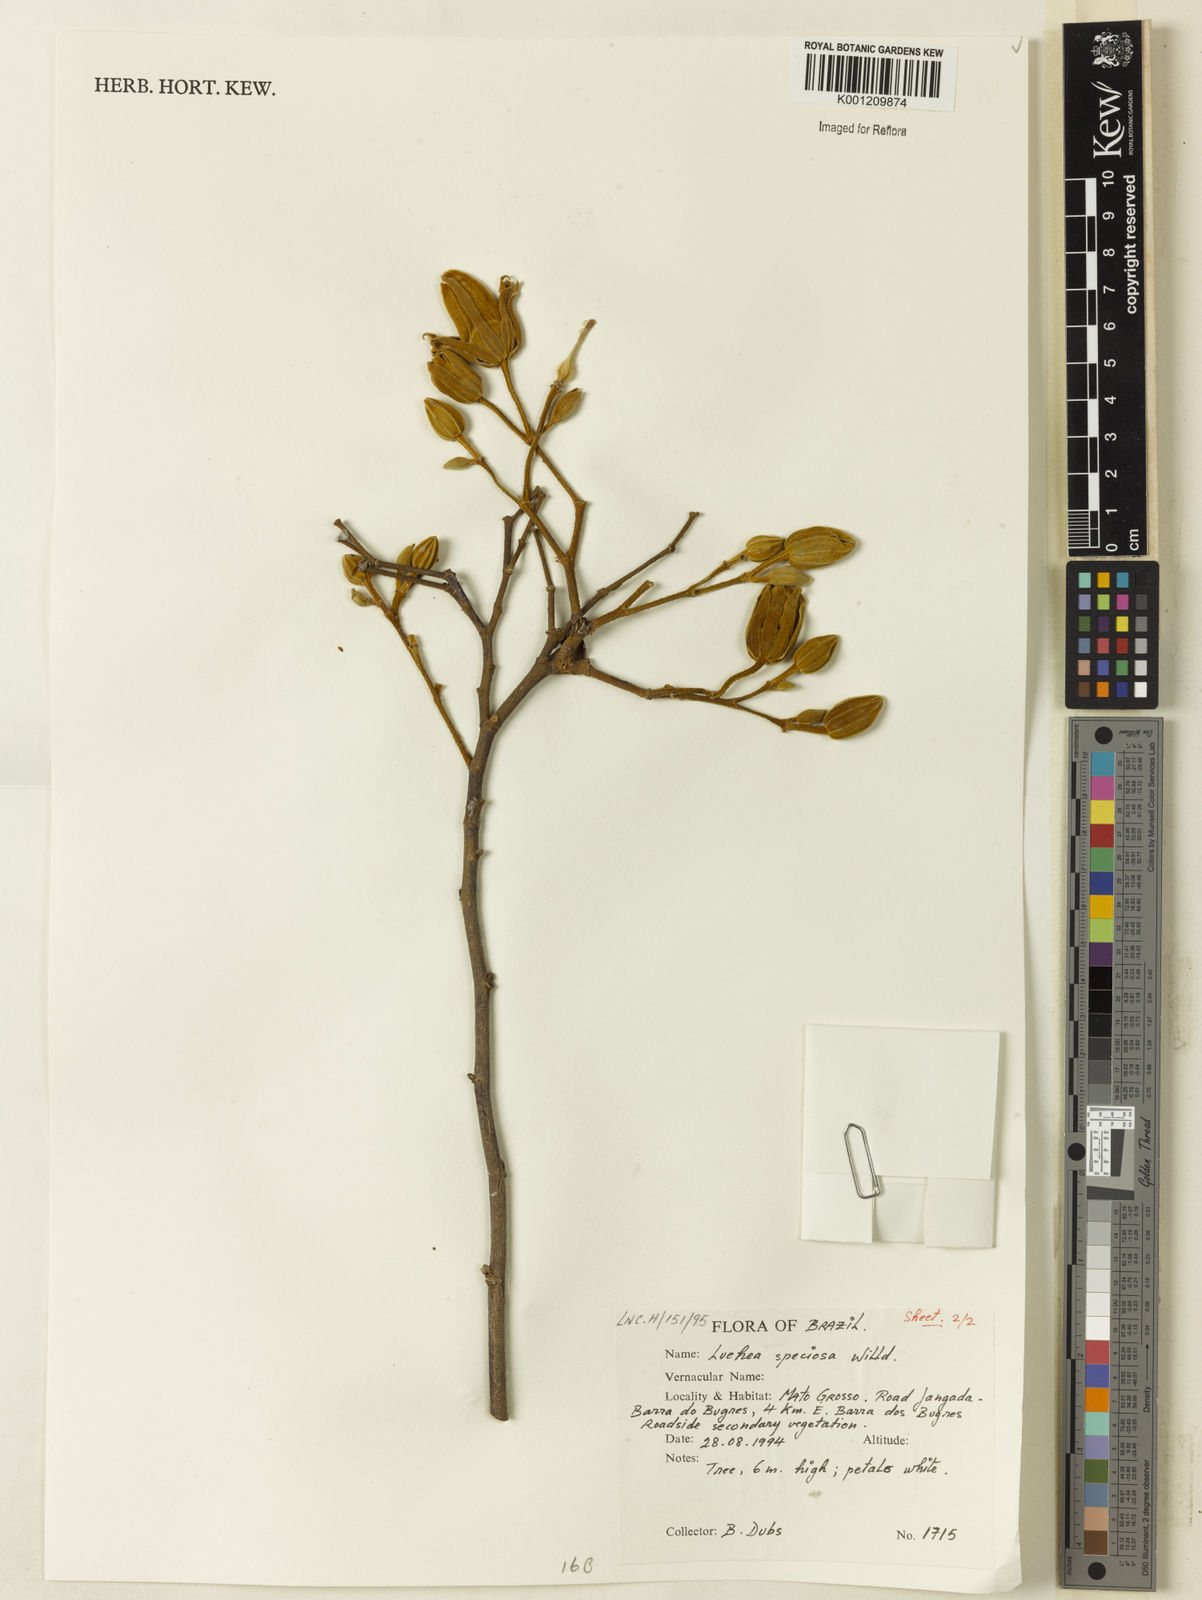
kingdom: Plantae
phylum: Tracheophyta
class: Magnoliopsida
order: Malvales
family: Malvaceae
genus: Luehea
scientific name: Luehea speciosa
